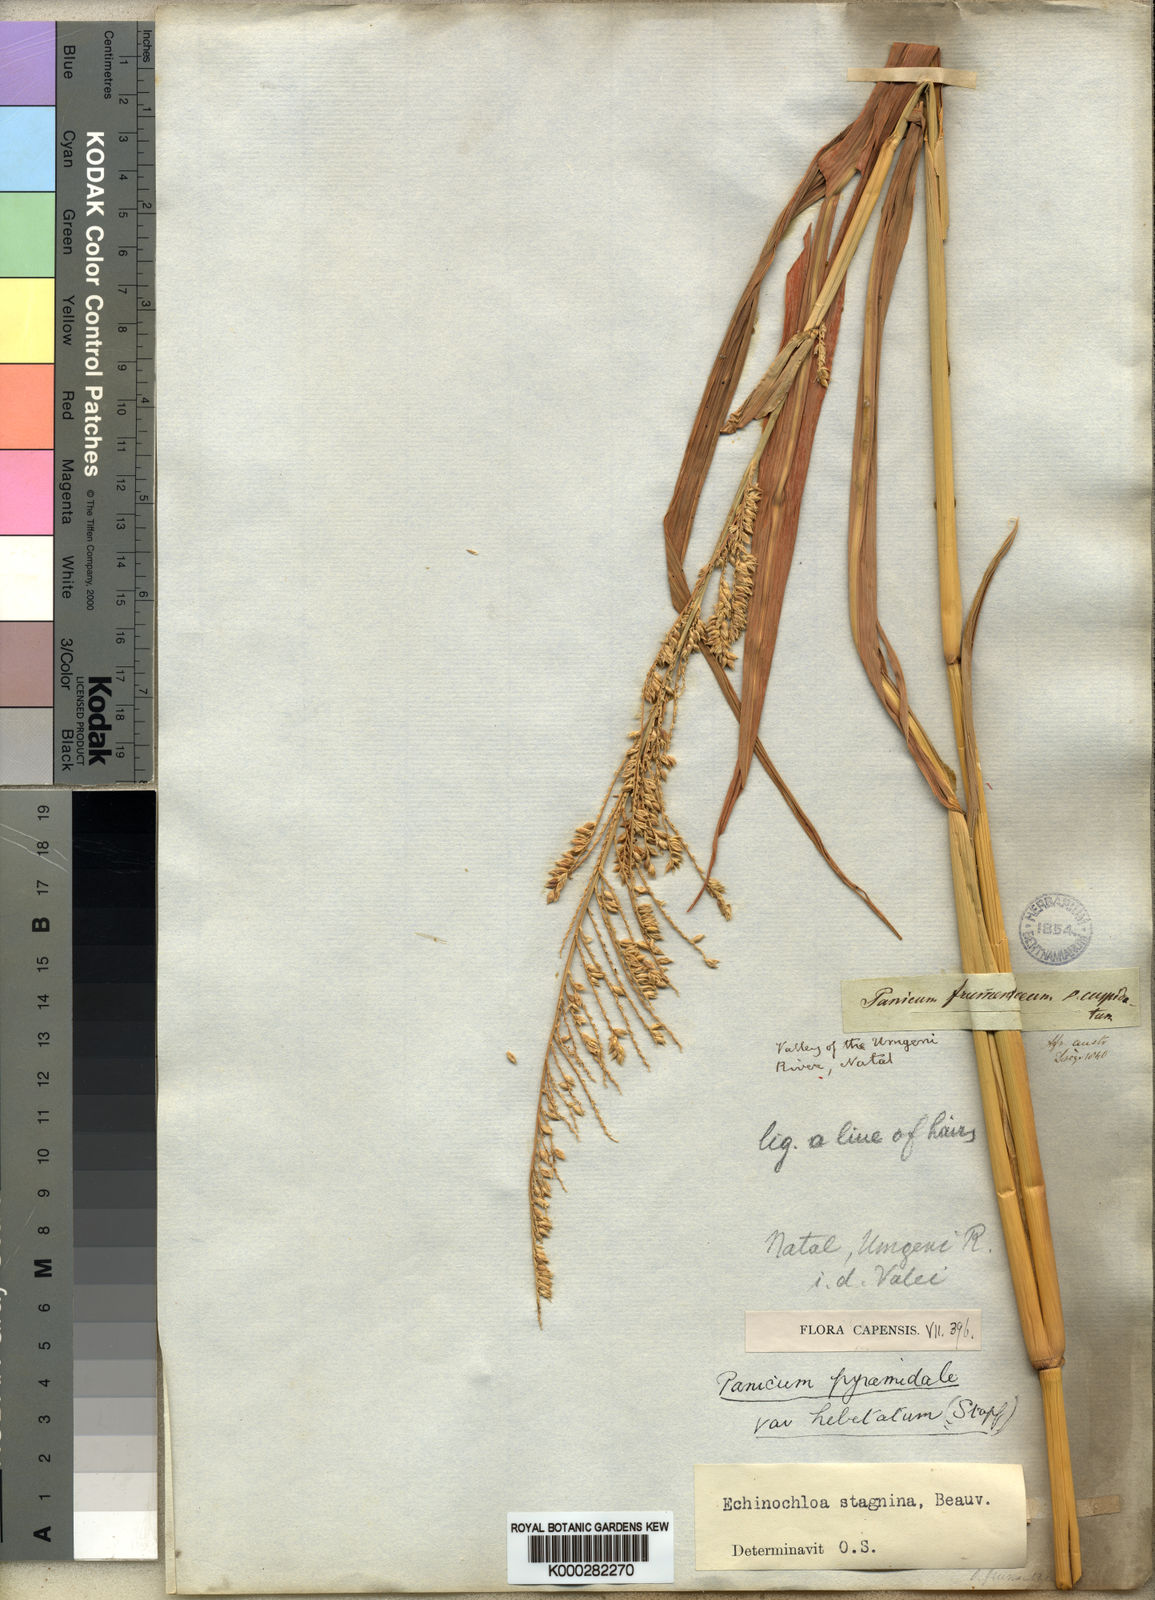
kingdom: Plantae
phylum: Tracheophyta
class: Liliopsida
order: Poales
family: Poaceae
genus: Echinochloa
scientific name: Echinochloa pyramidalis
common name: Antelope grass
